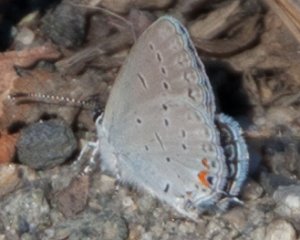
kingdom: Animalia
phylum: Arthropoda
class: Insecta
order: Lepidoptera
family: Lycaenidae
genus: Elkalyce
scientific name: Elkalyce comyntas
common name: Eastern Tailed-Blue
